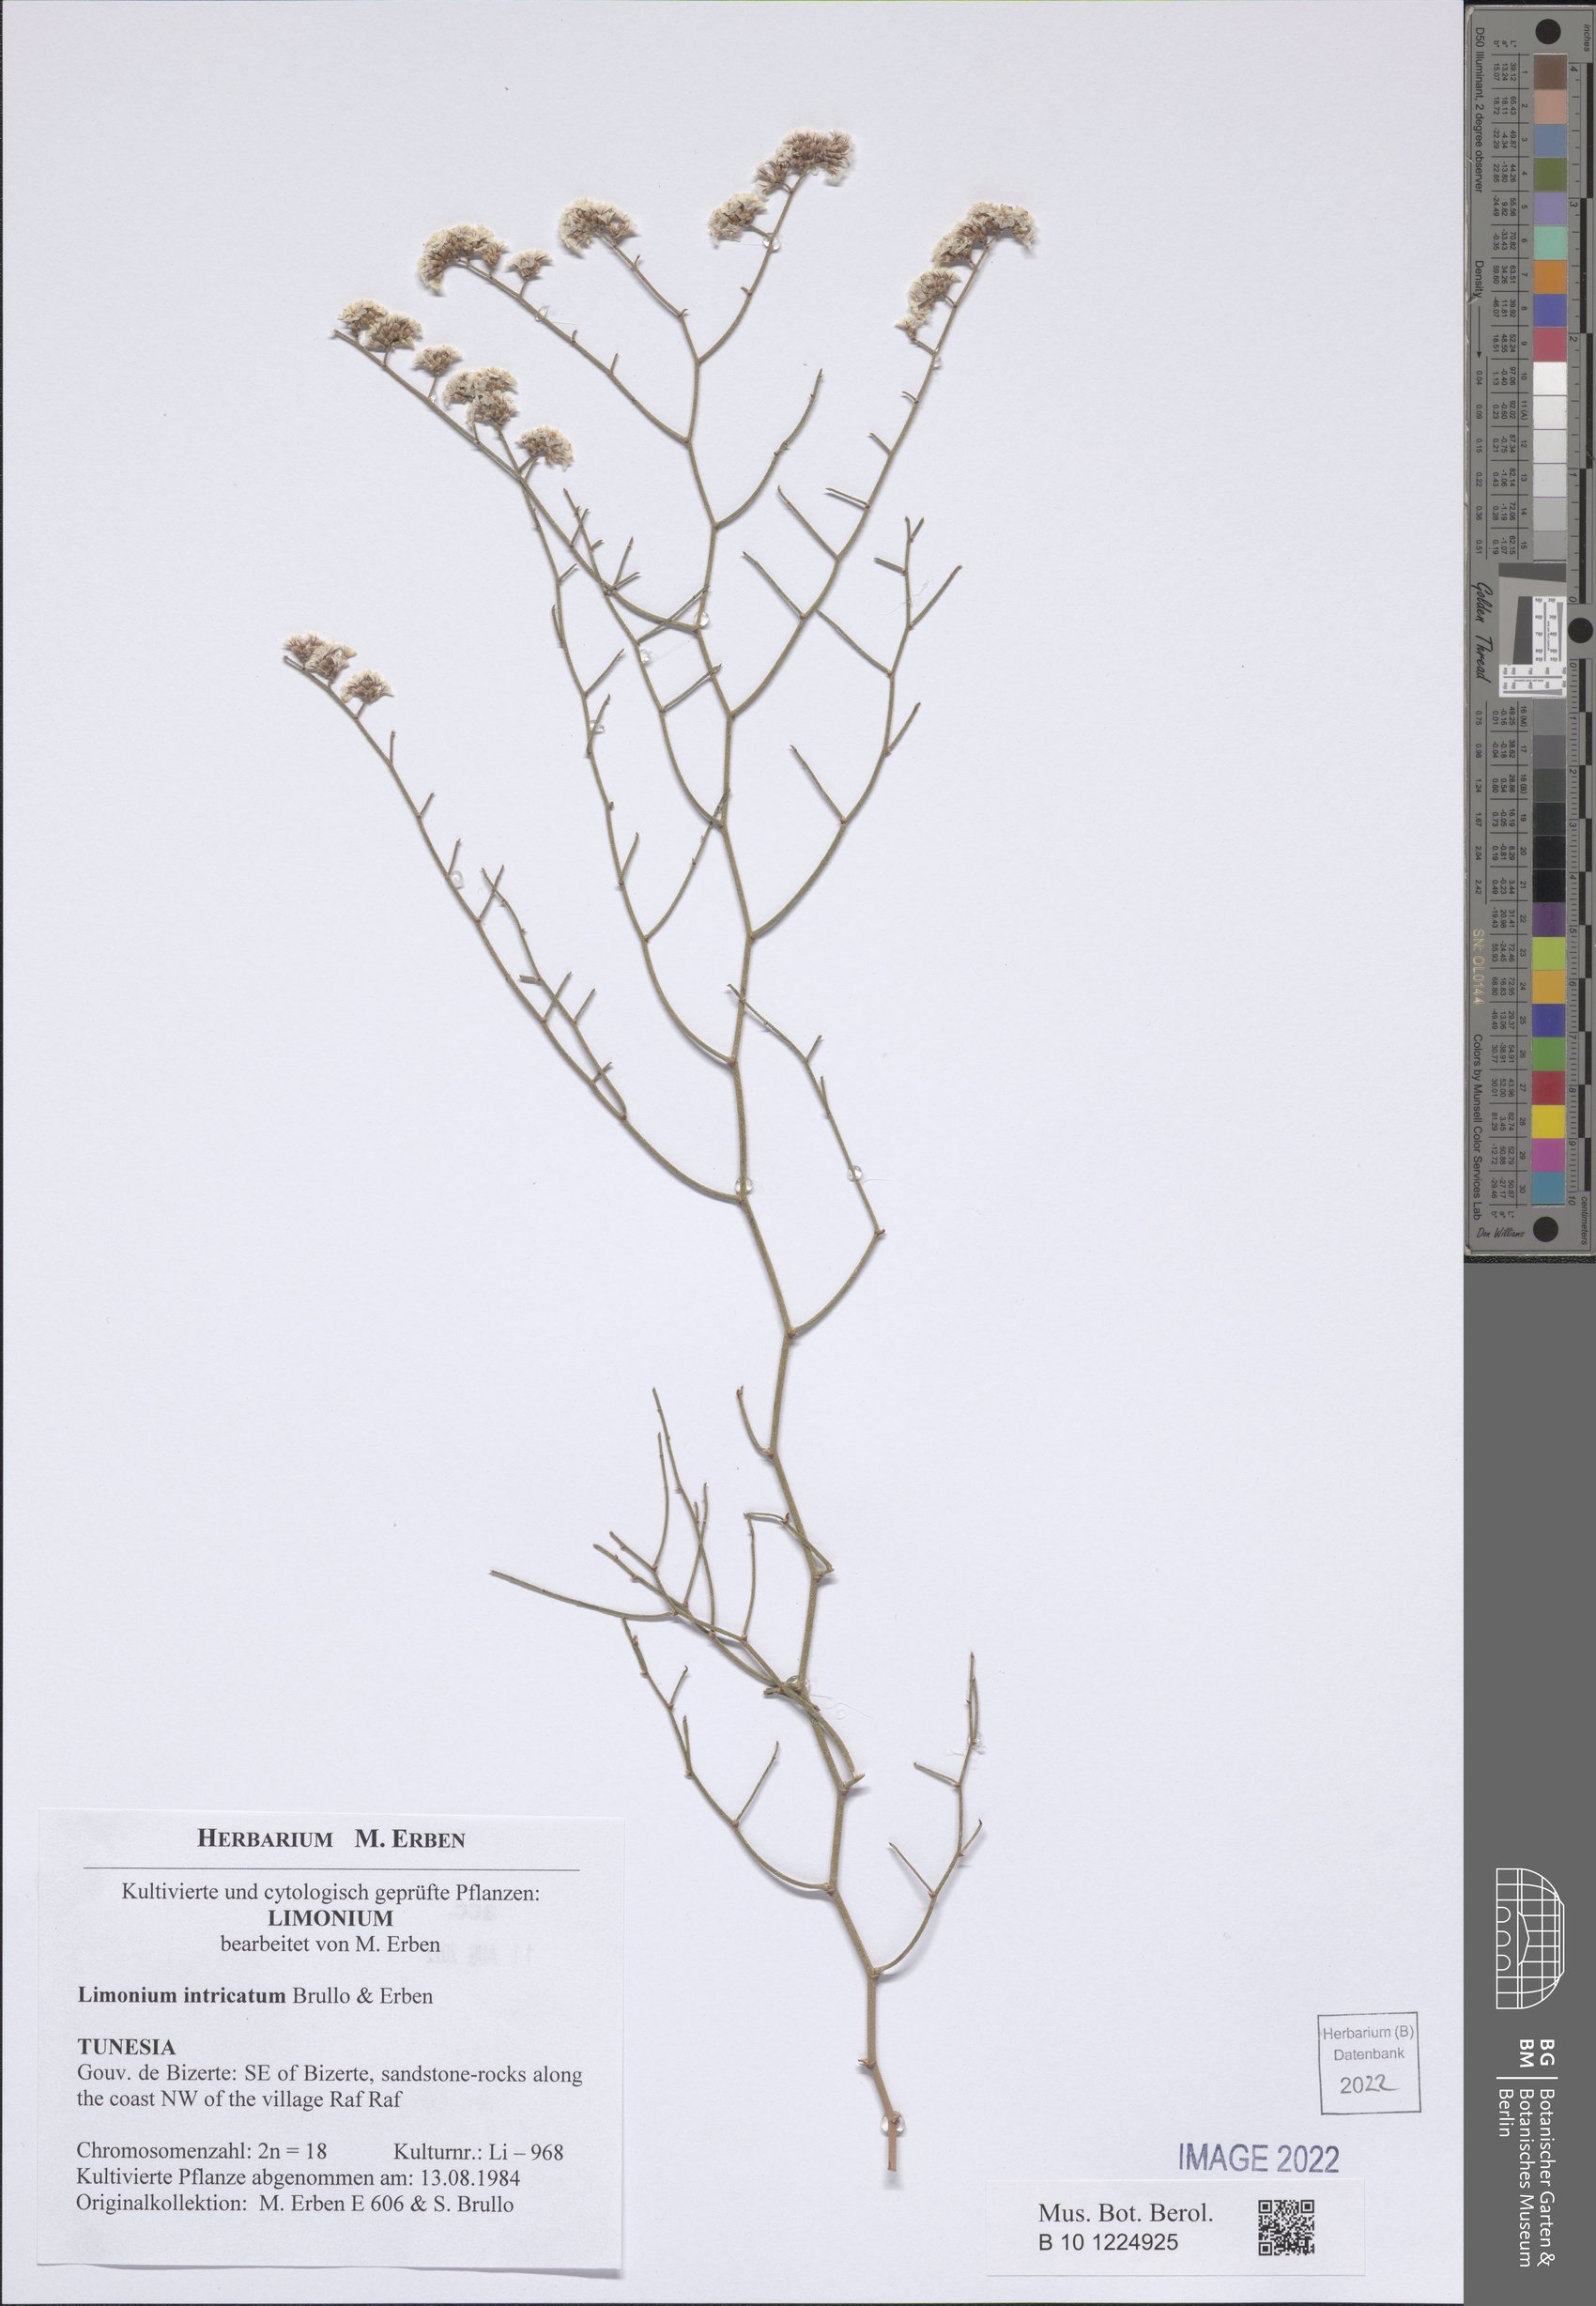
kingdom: Plantae
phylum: Tracheophyta
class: Magnoliopsida
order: Caryophyllales
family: Plumbaginaceae
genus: Limonium
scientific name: Limonium intricatum
